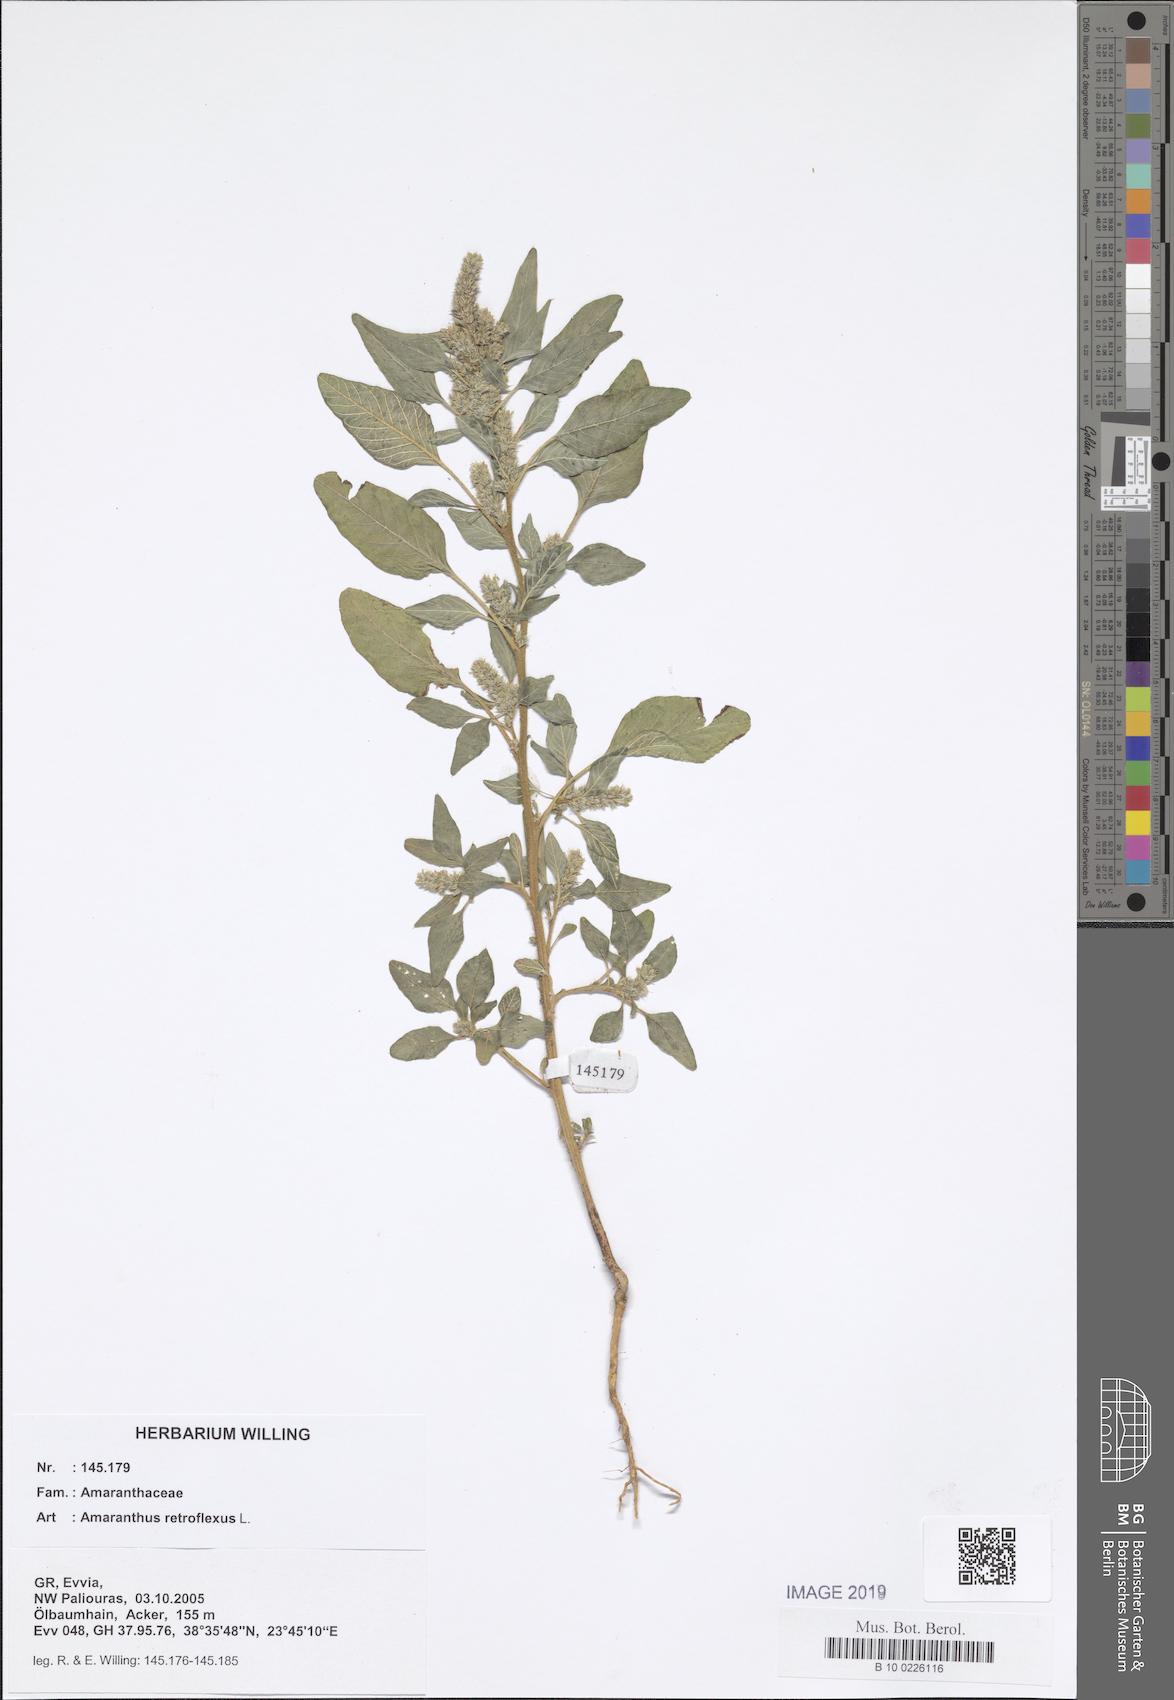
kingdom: Plantae
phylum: Tracheophyta
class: Magnoliopsida
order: Caryophyllales
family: Amaranthaceae
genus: Amaranthus
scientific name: Amaranthus retroflexus
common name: Redroot amaranth
